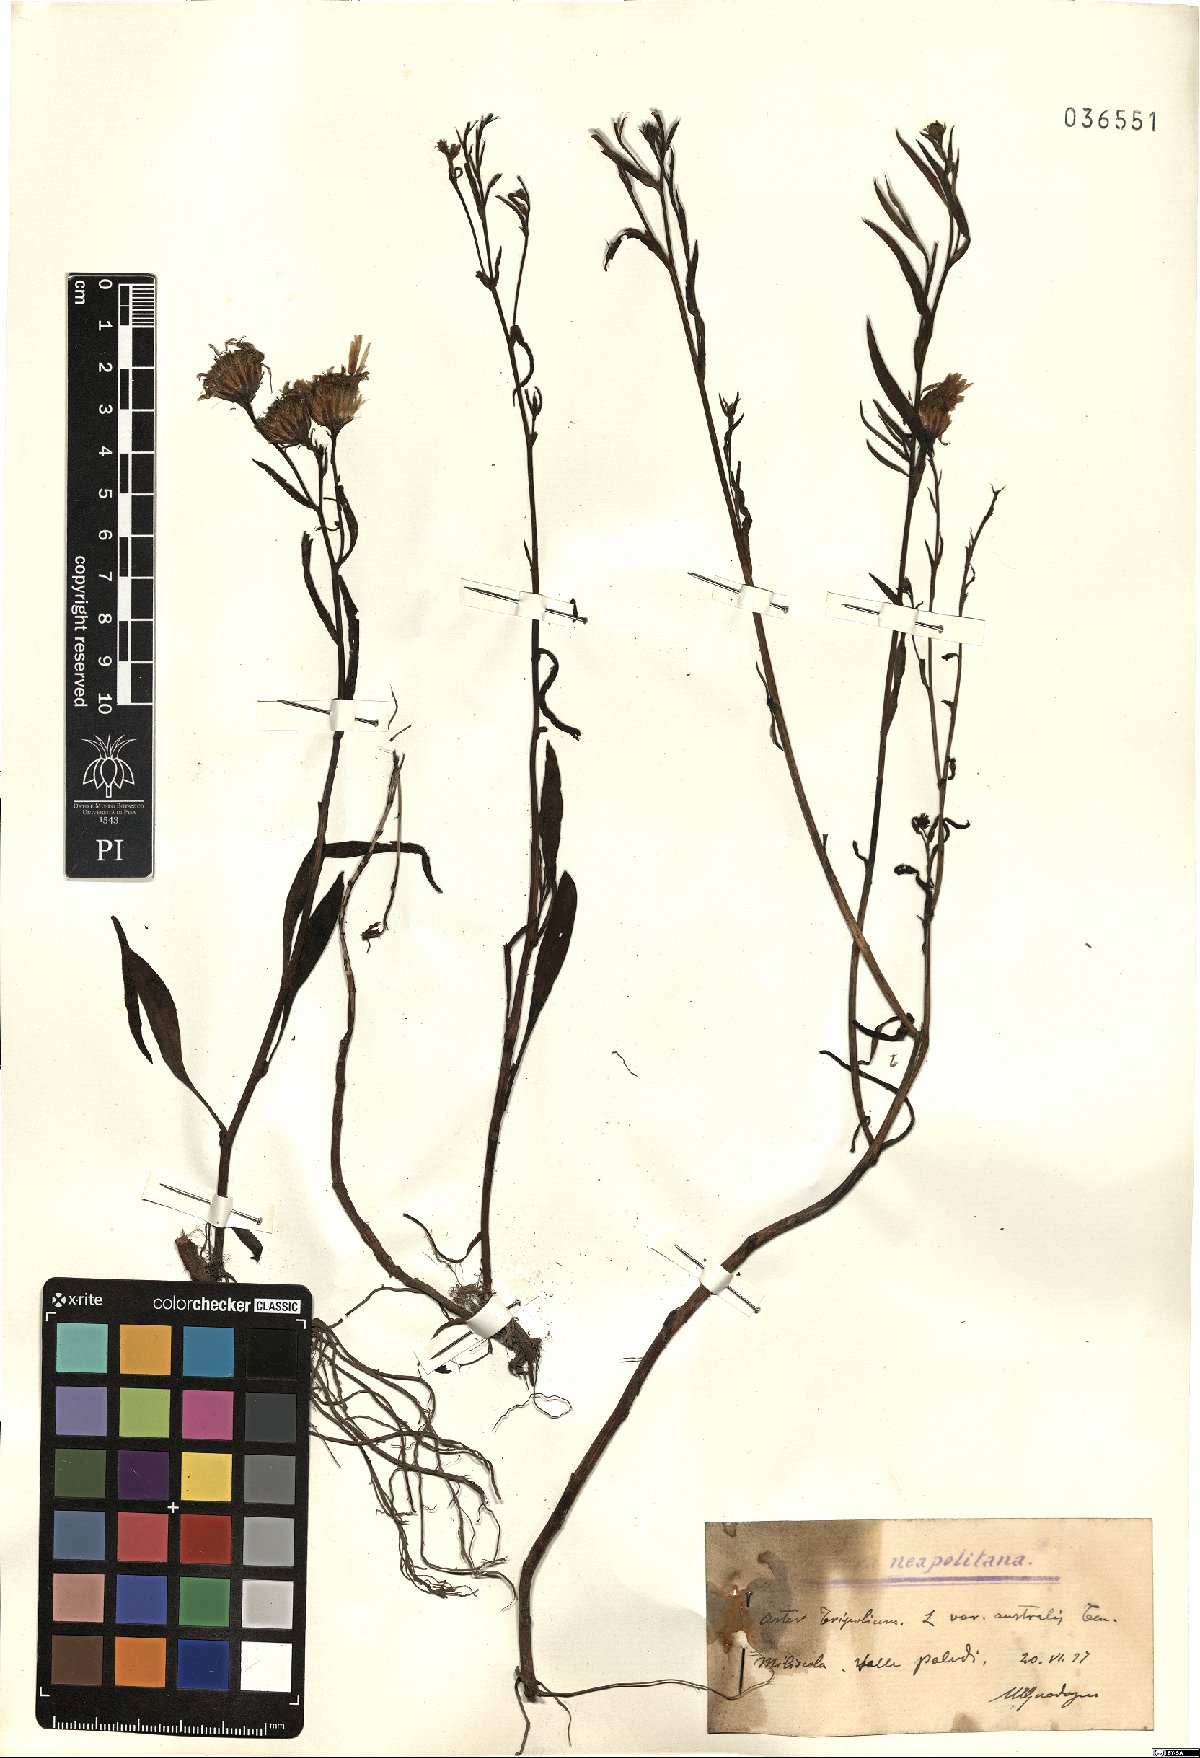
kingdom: Plantae
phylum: Tracheophyta
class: Magnoliopsida
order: Asterales
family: Asteraceae
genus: Tripolium
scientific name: Tripolium pannonicum
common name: Sea aster
